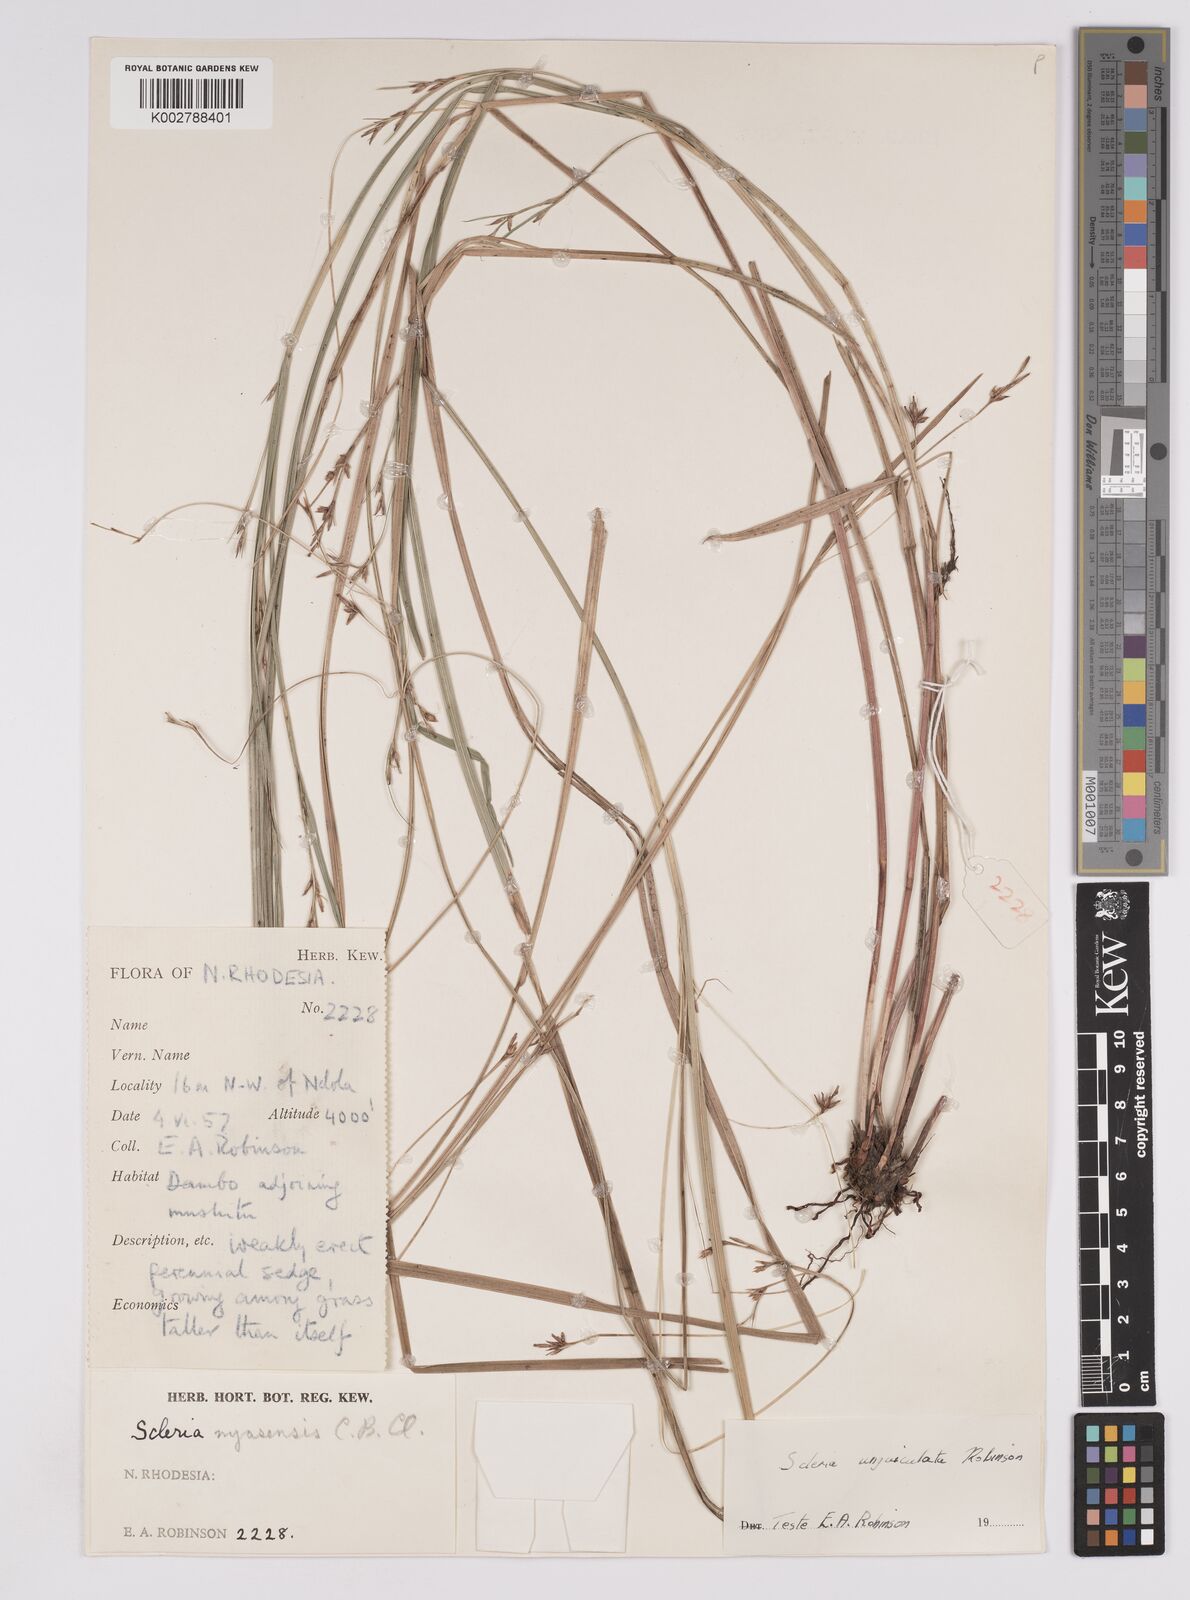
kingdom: Plantae
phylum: Tracheophyta
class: Liliopsida
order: Poales
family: Cyperaceae
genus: Scleria
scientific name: Scleria unguiculata
